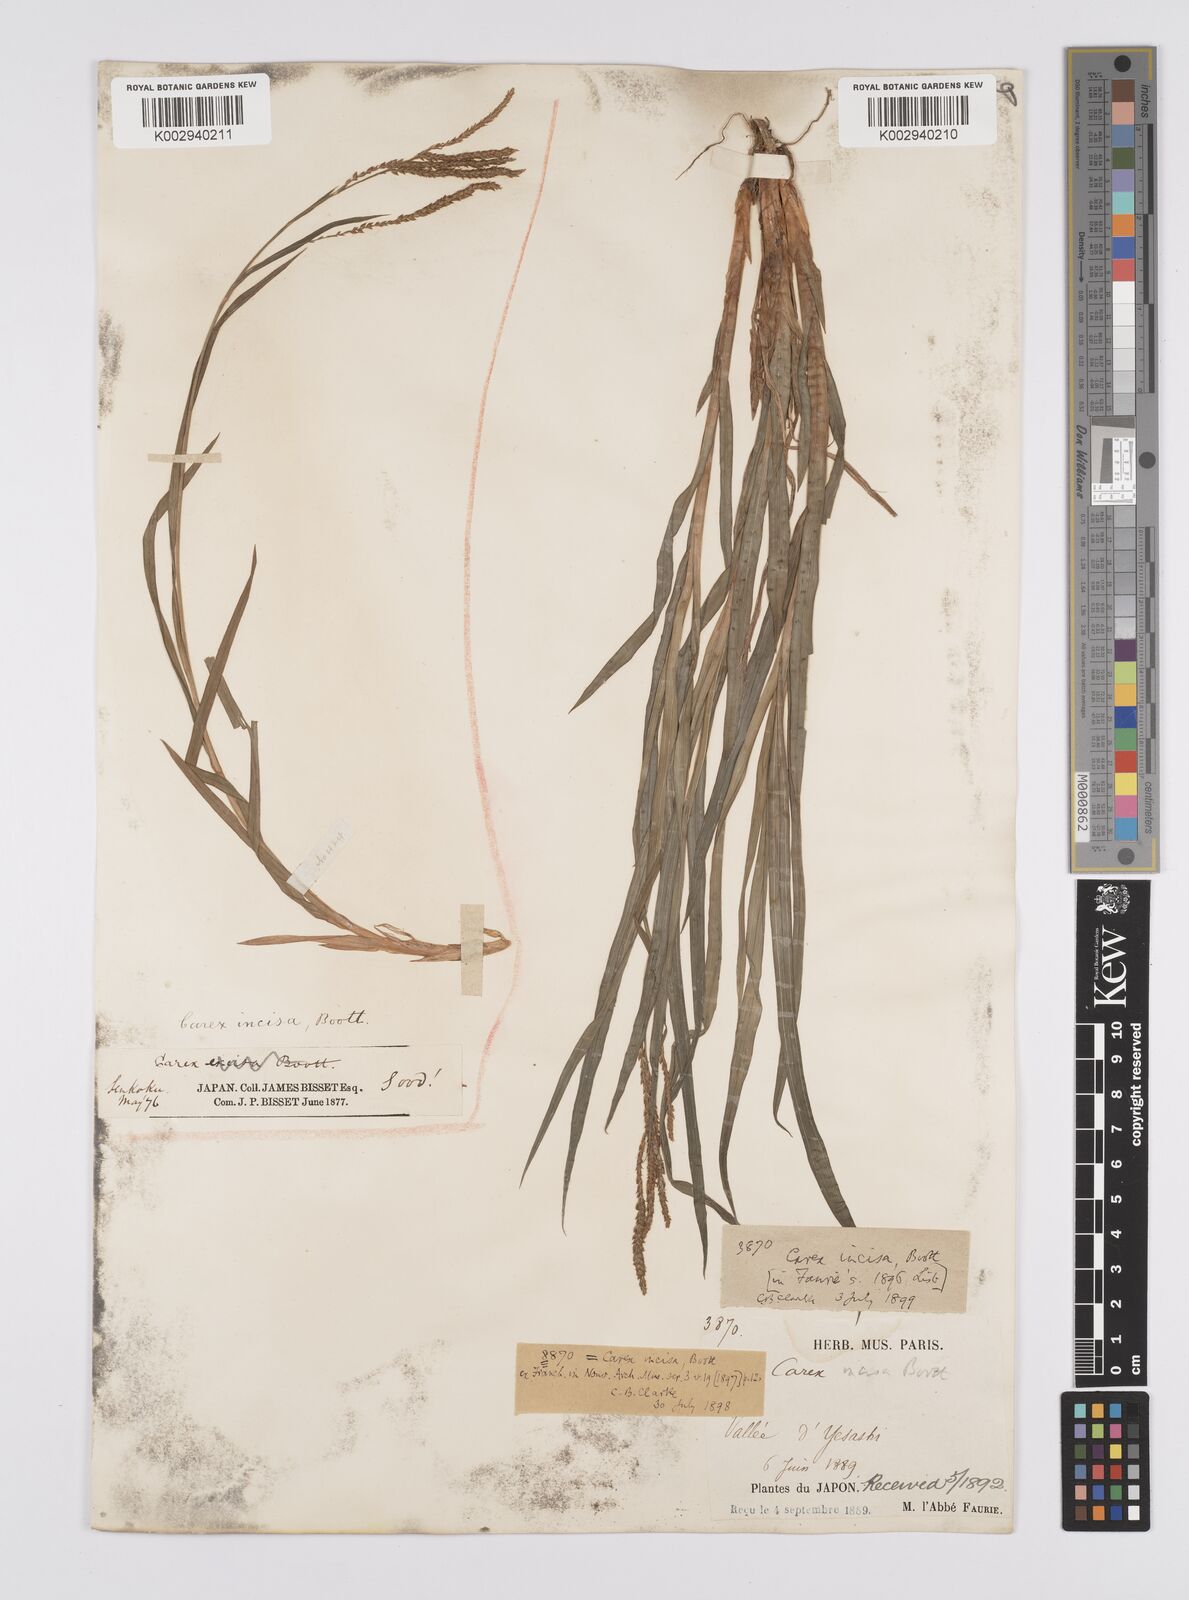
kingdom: Plantae
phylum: Tracheophyta
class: Liliopsida
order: Poales
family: Cyperaceae
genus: Carex
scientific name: Carex incisa
